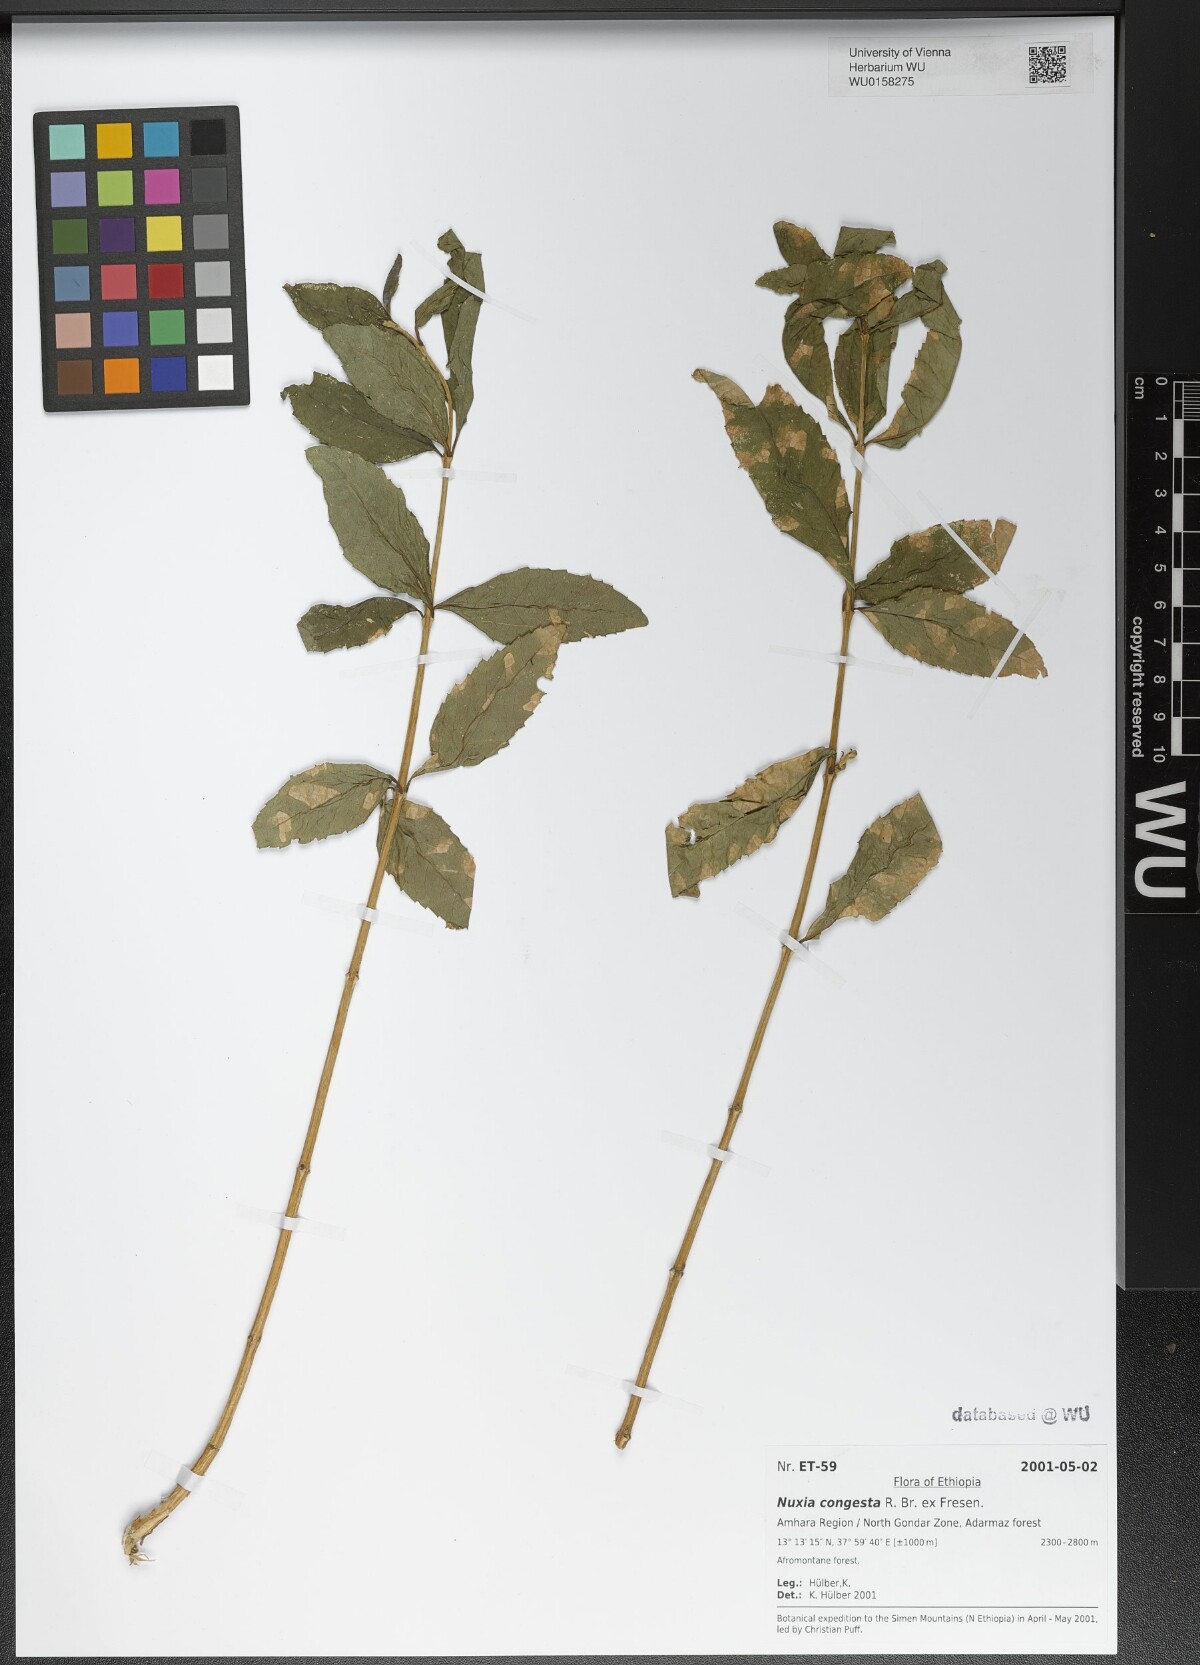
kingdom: Plantae
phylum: Tracheophyta
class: Magnoliopsida
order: Lamiales
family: Stilbaceae
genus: Nuxia
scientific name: Nuxia congesta
